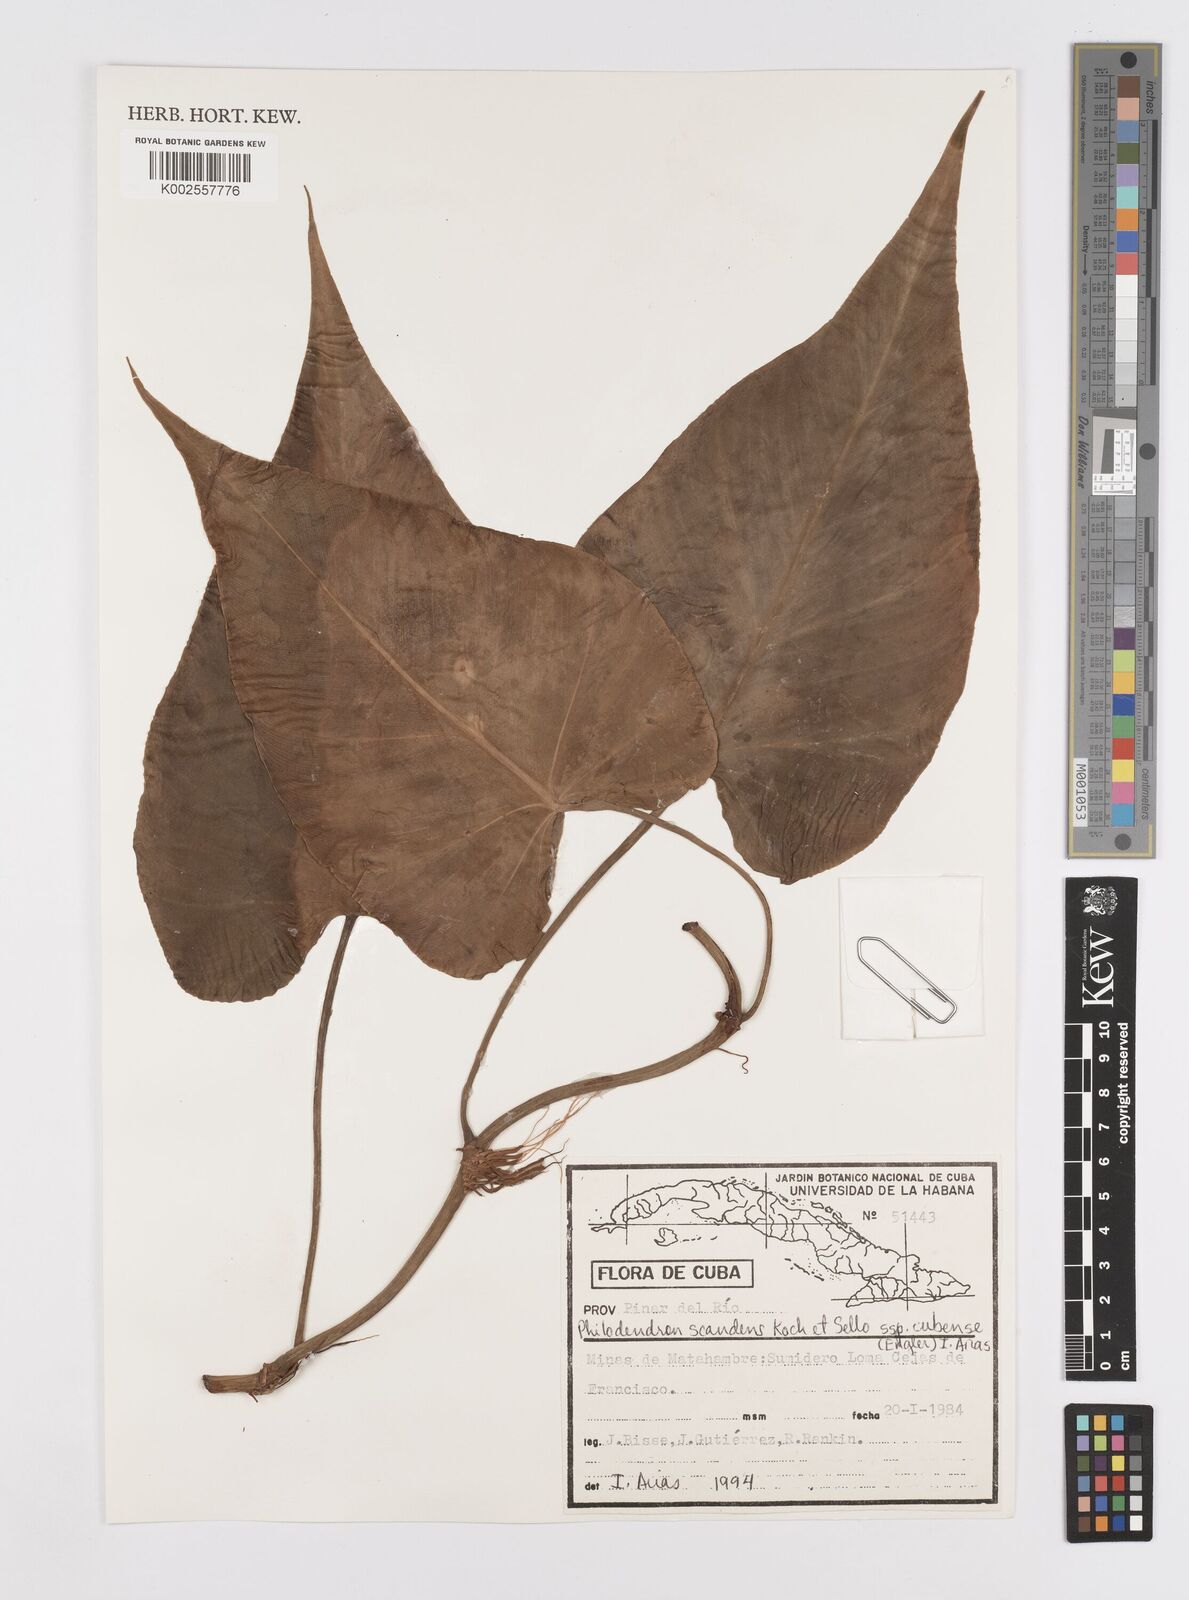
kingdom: Plantae
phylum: Tracheophyta
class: Liliopsida
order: Alismatales
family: Araceae
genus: Philodendron
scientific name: Philodendron hederaceum
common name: Vilevine
